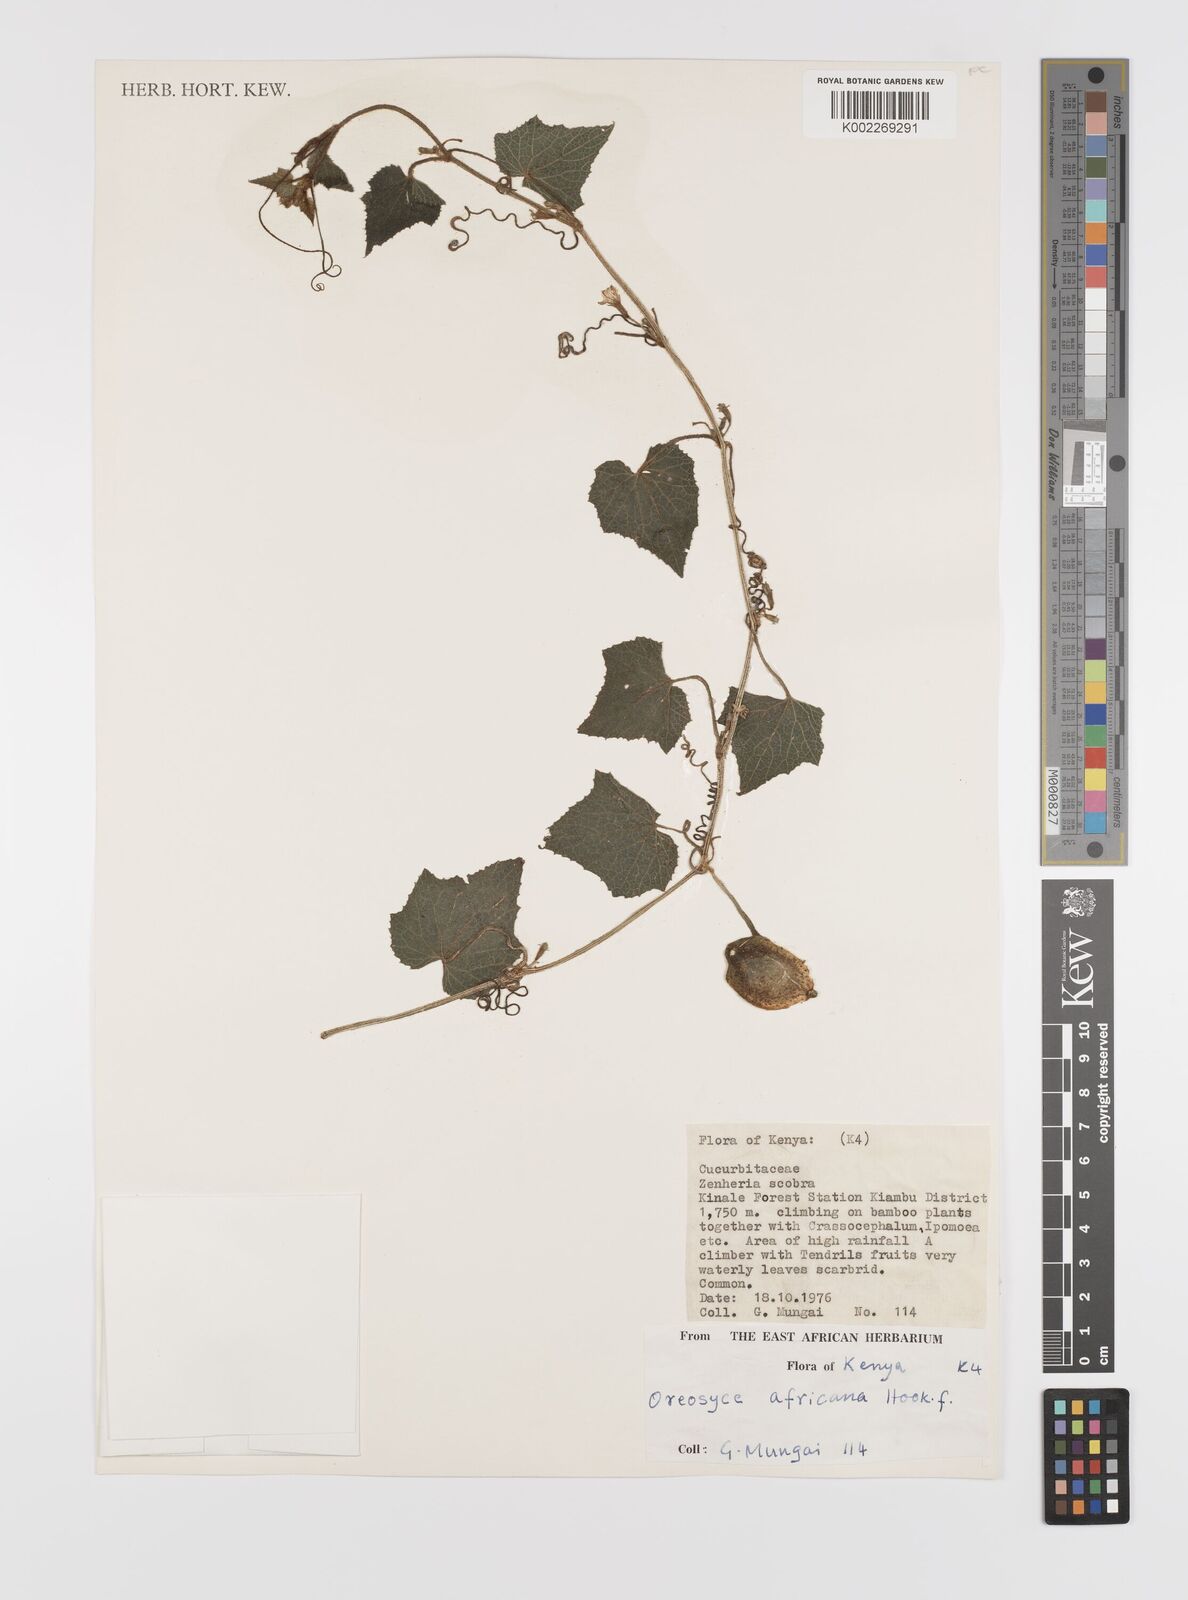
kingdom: Plantae
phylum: Tracheophyta
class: Magnoliopsida
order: Cucurbitales
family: Cucurbitaceae
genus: Cucumis
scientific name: Cucumis oreosyce
